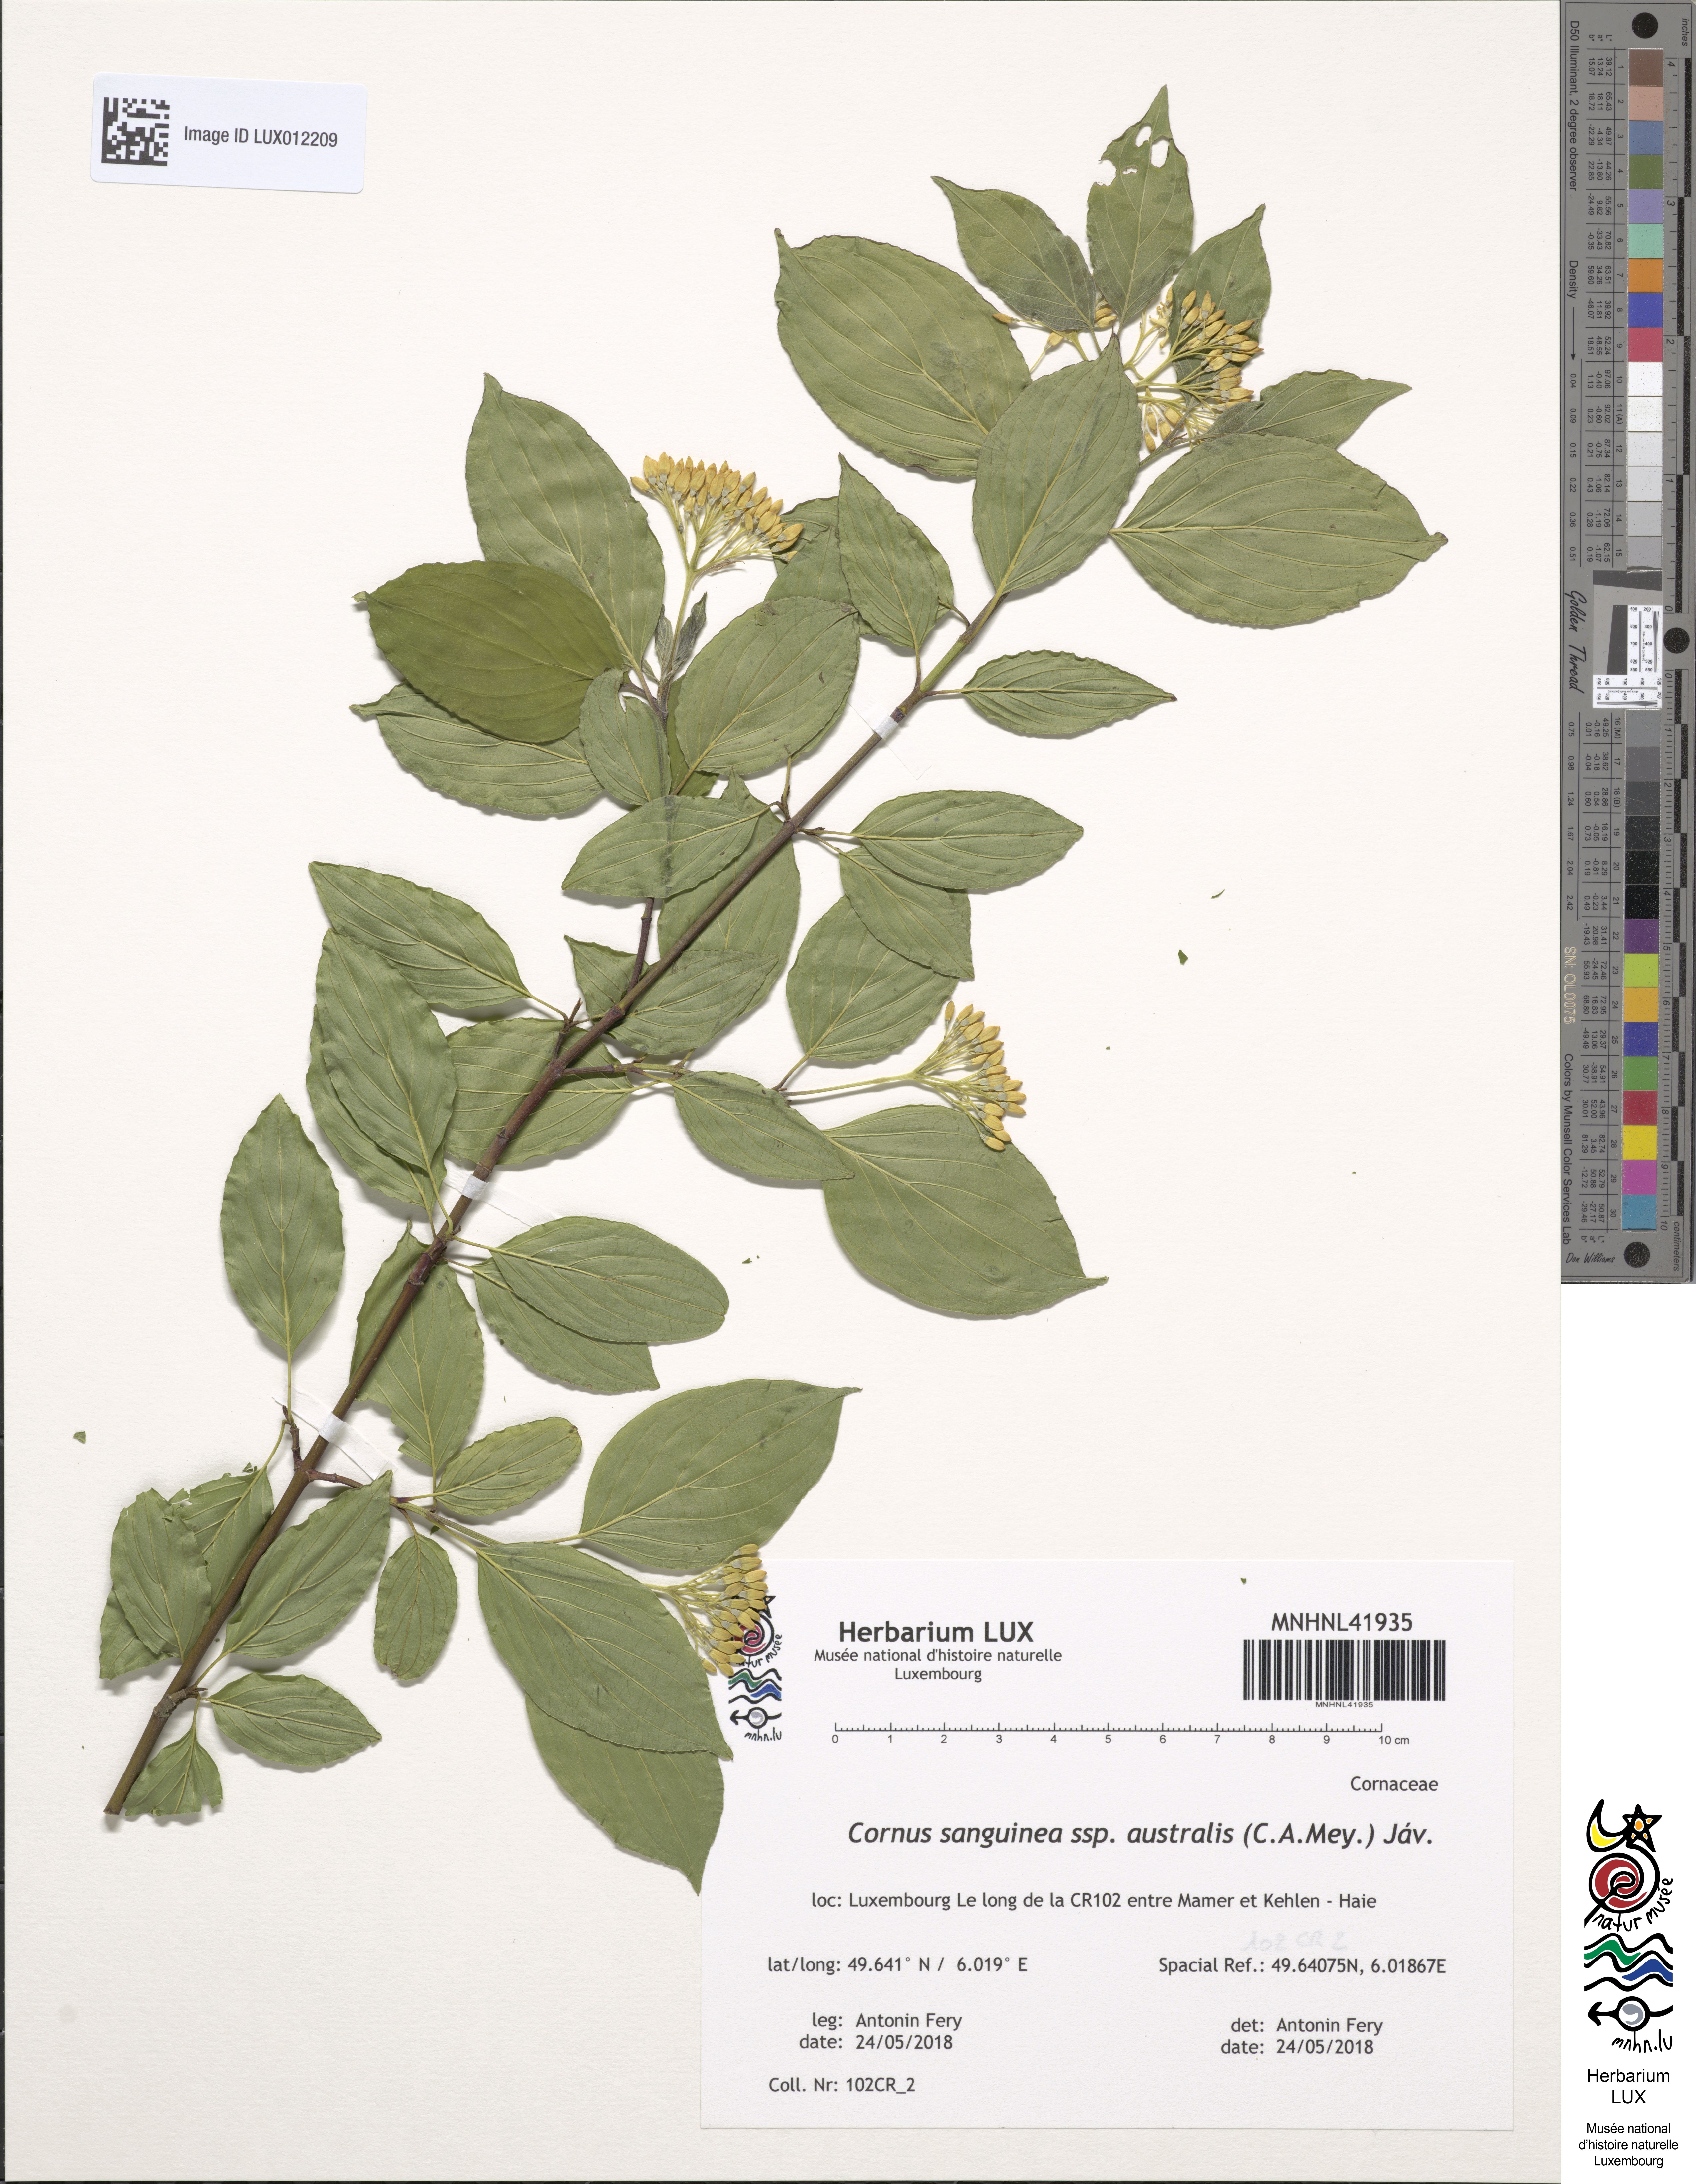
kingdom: Plantae
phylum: Tracheophyta
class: Magnoliopsida
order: Cornales
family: Cornaceae
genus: Cornus
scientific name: Cornus sanguinea
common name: Dogwood
